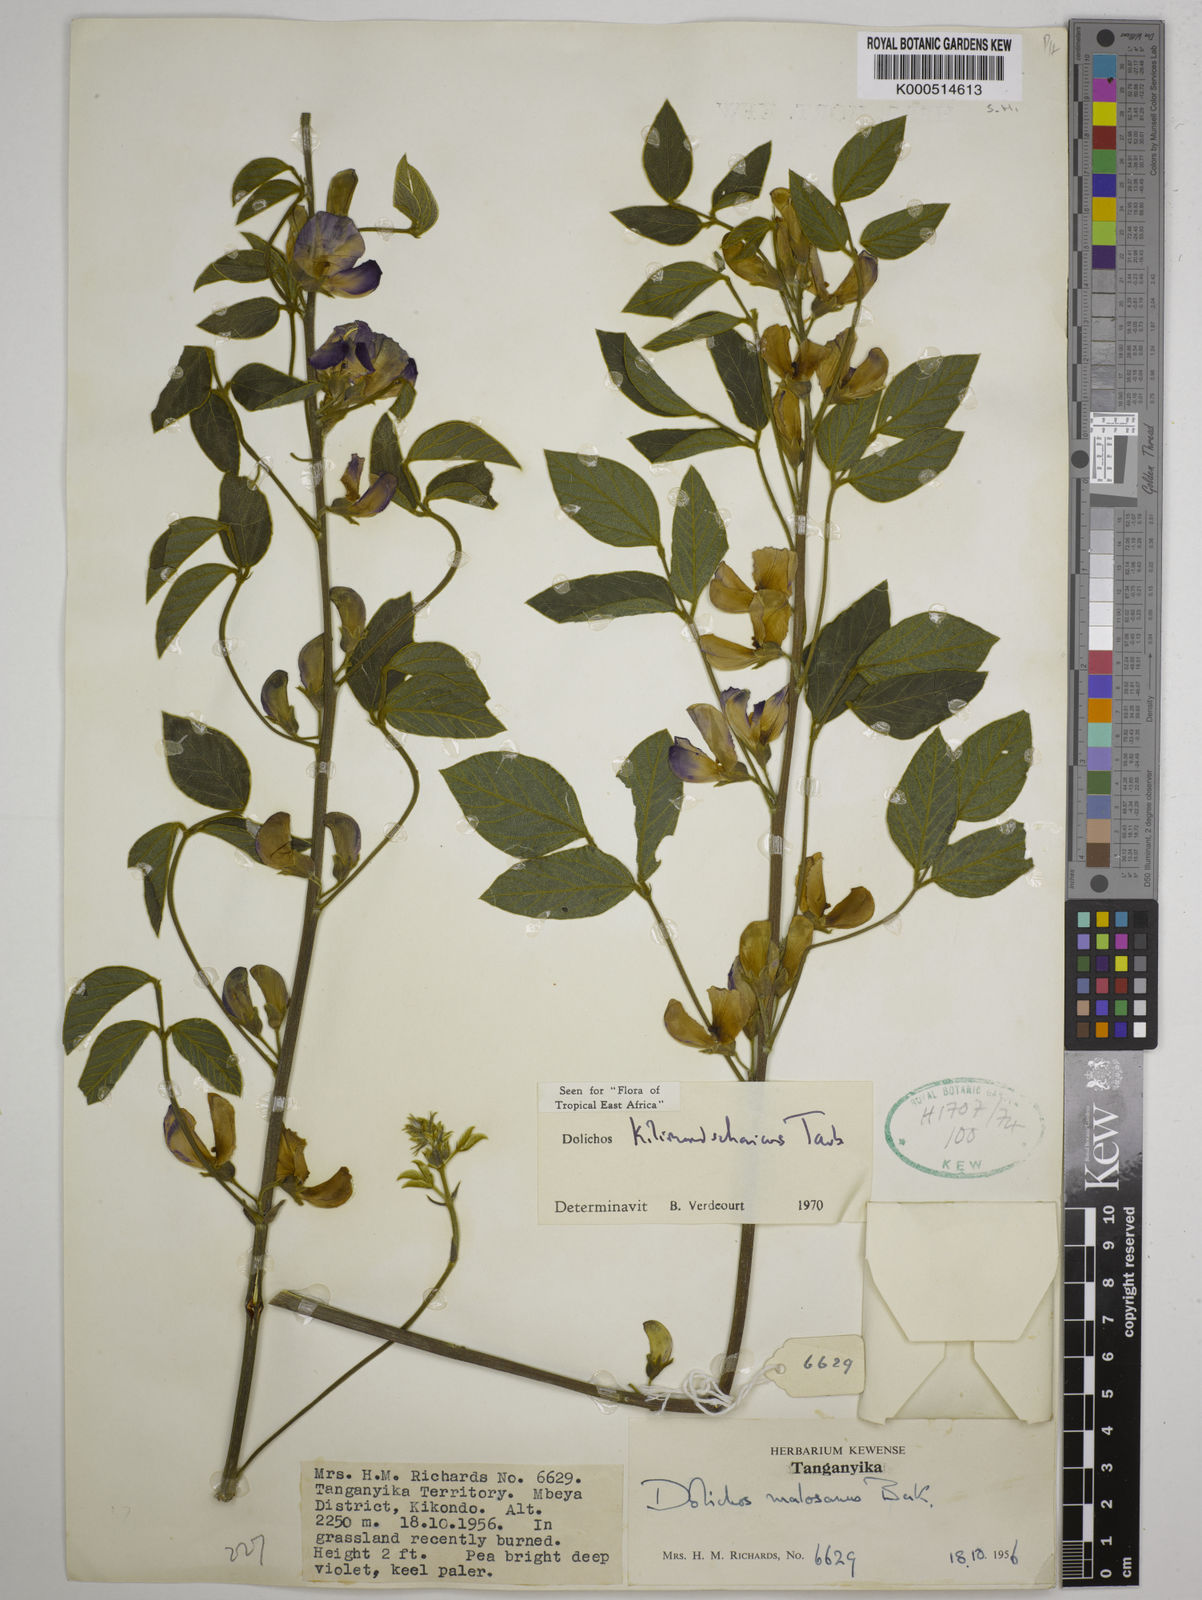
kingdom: Plantae
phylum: Tracheophyta
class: Magnoliopsida
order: Fabales
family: Fabaceae
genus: Dolichos
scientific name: Dolichos kilimandscharicus
